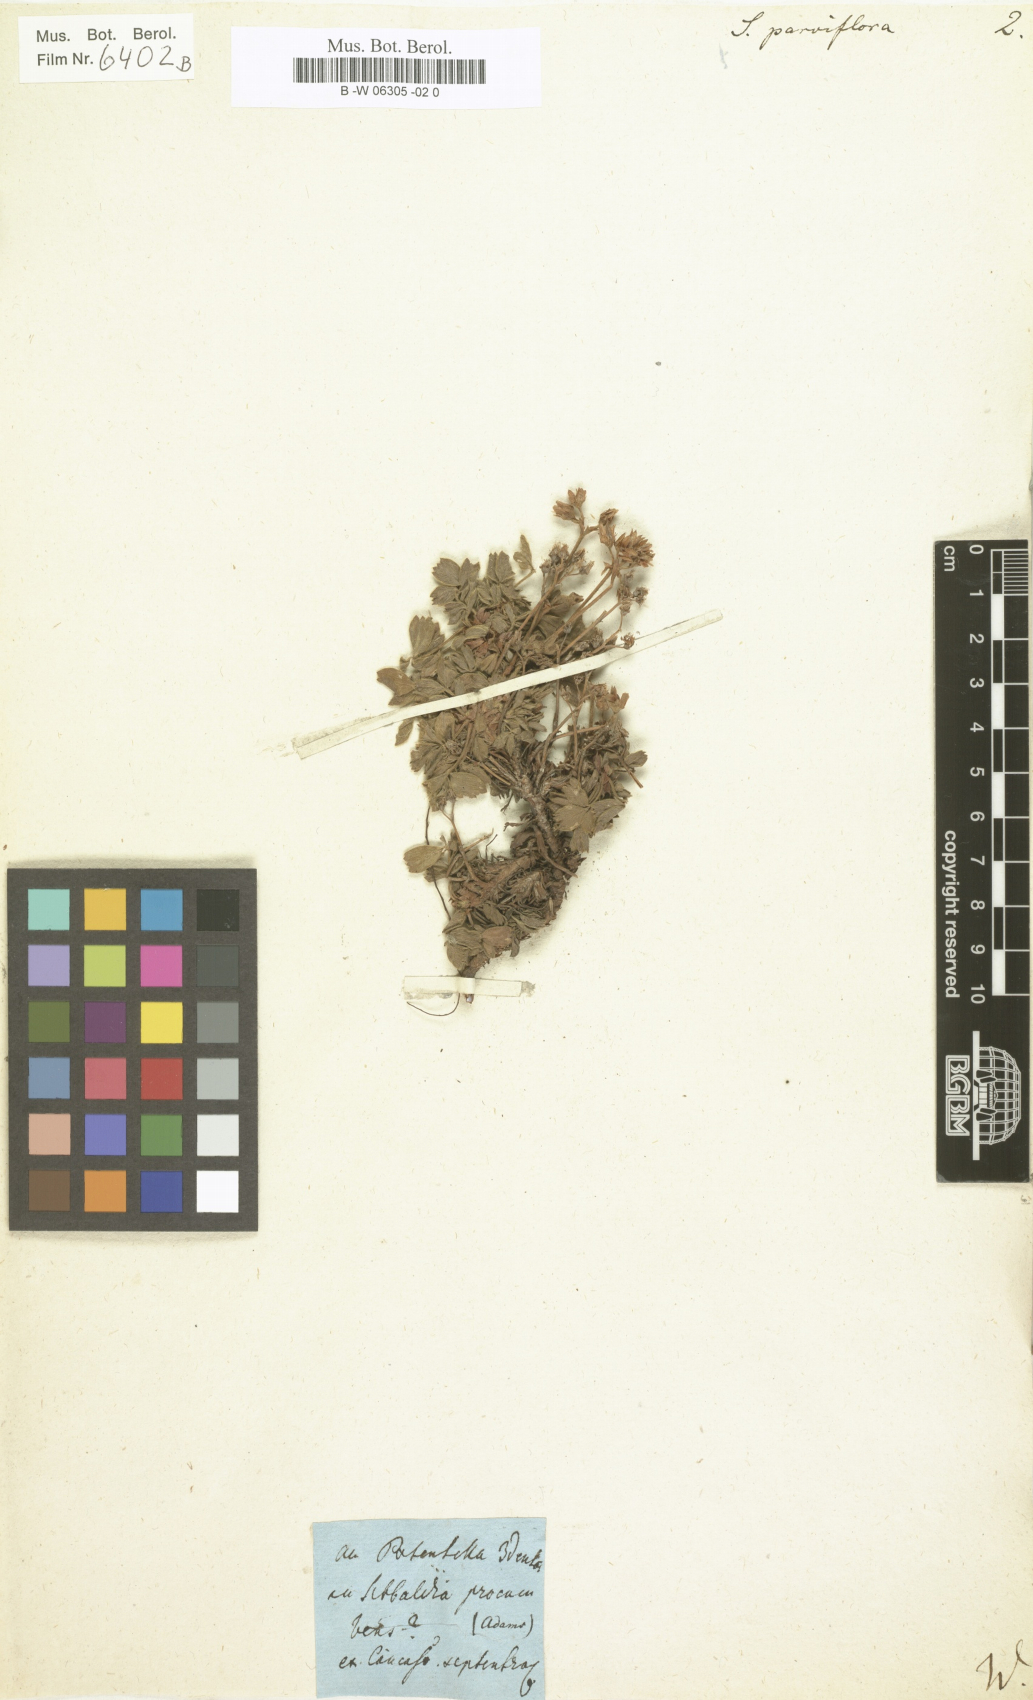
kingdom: Plantae
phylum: Tracheophyta
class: Magnoliopsida
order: Rosales
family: Rosaceae
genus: Sibbaldia
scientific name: Sibbaldia parviflora
